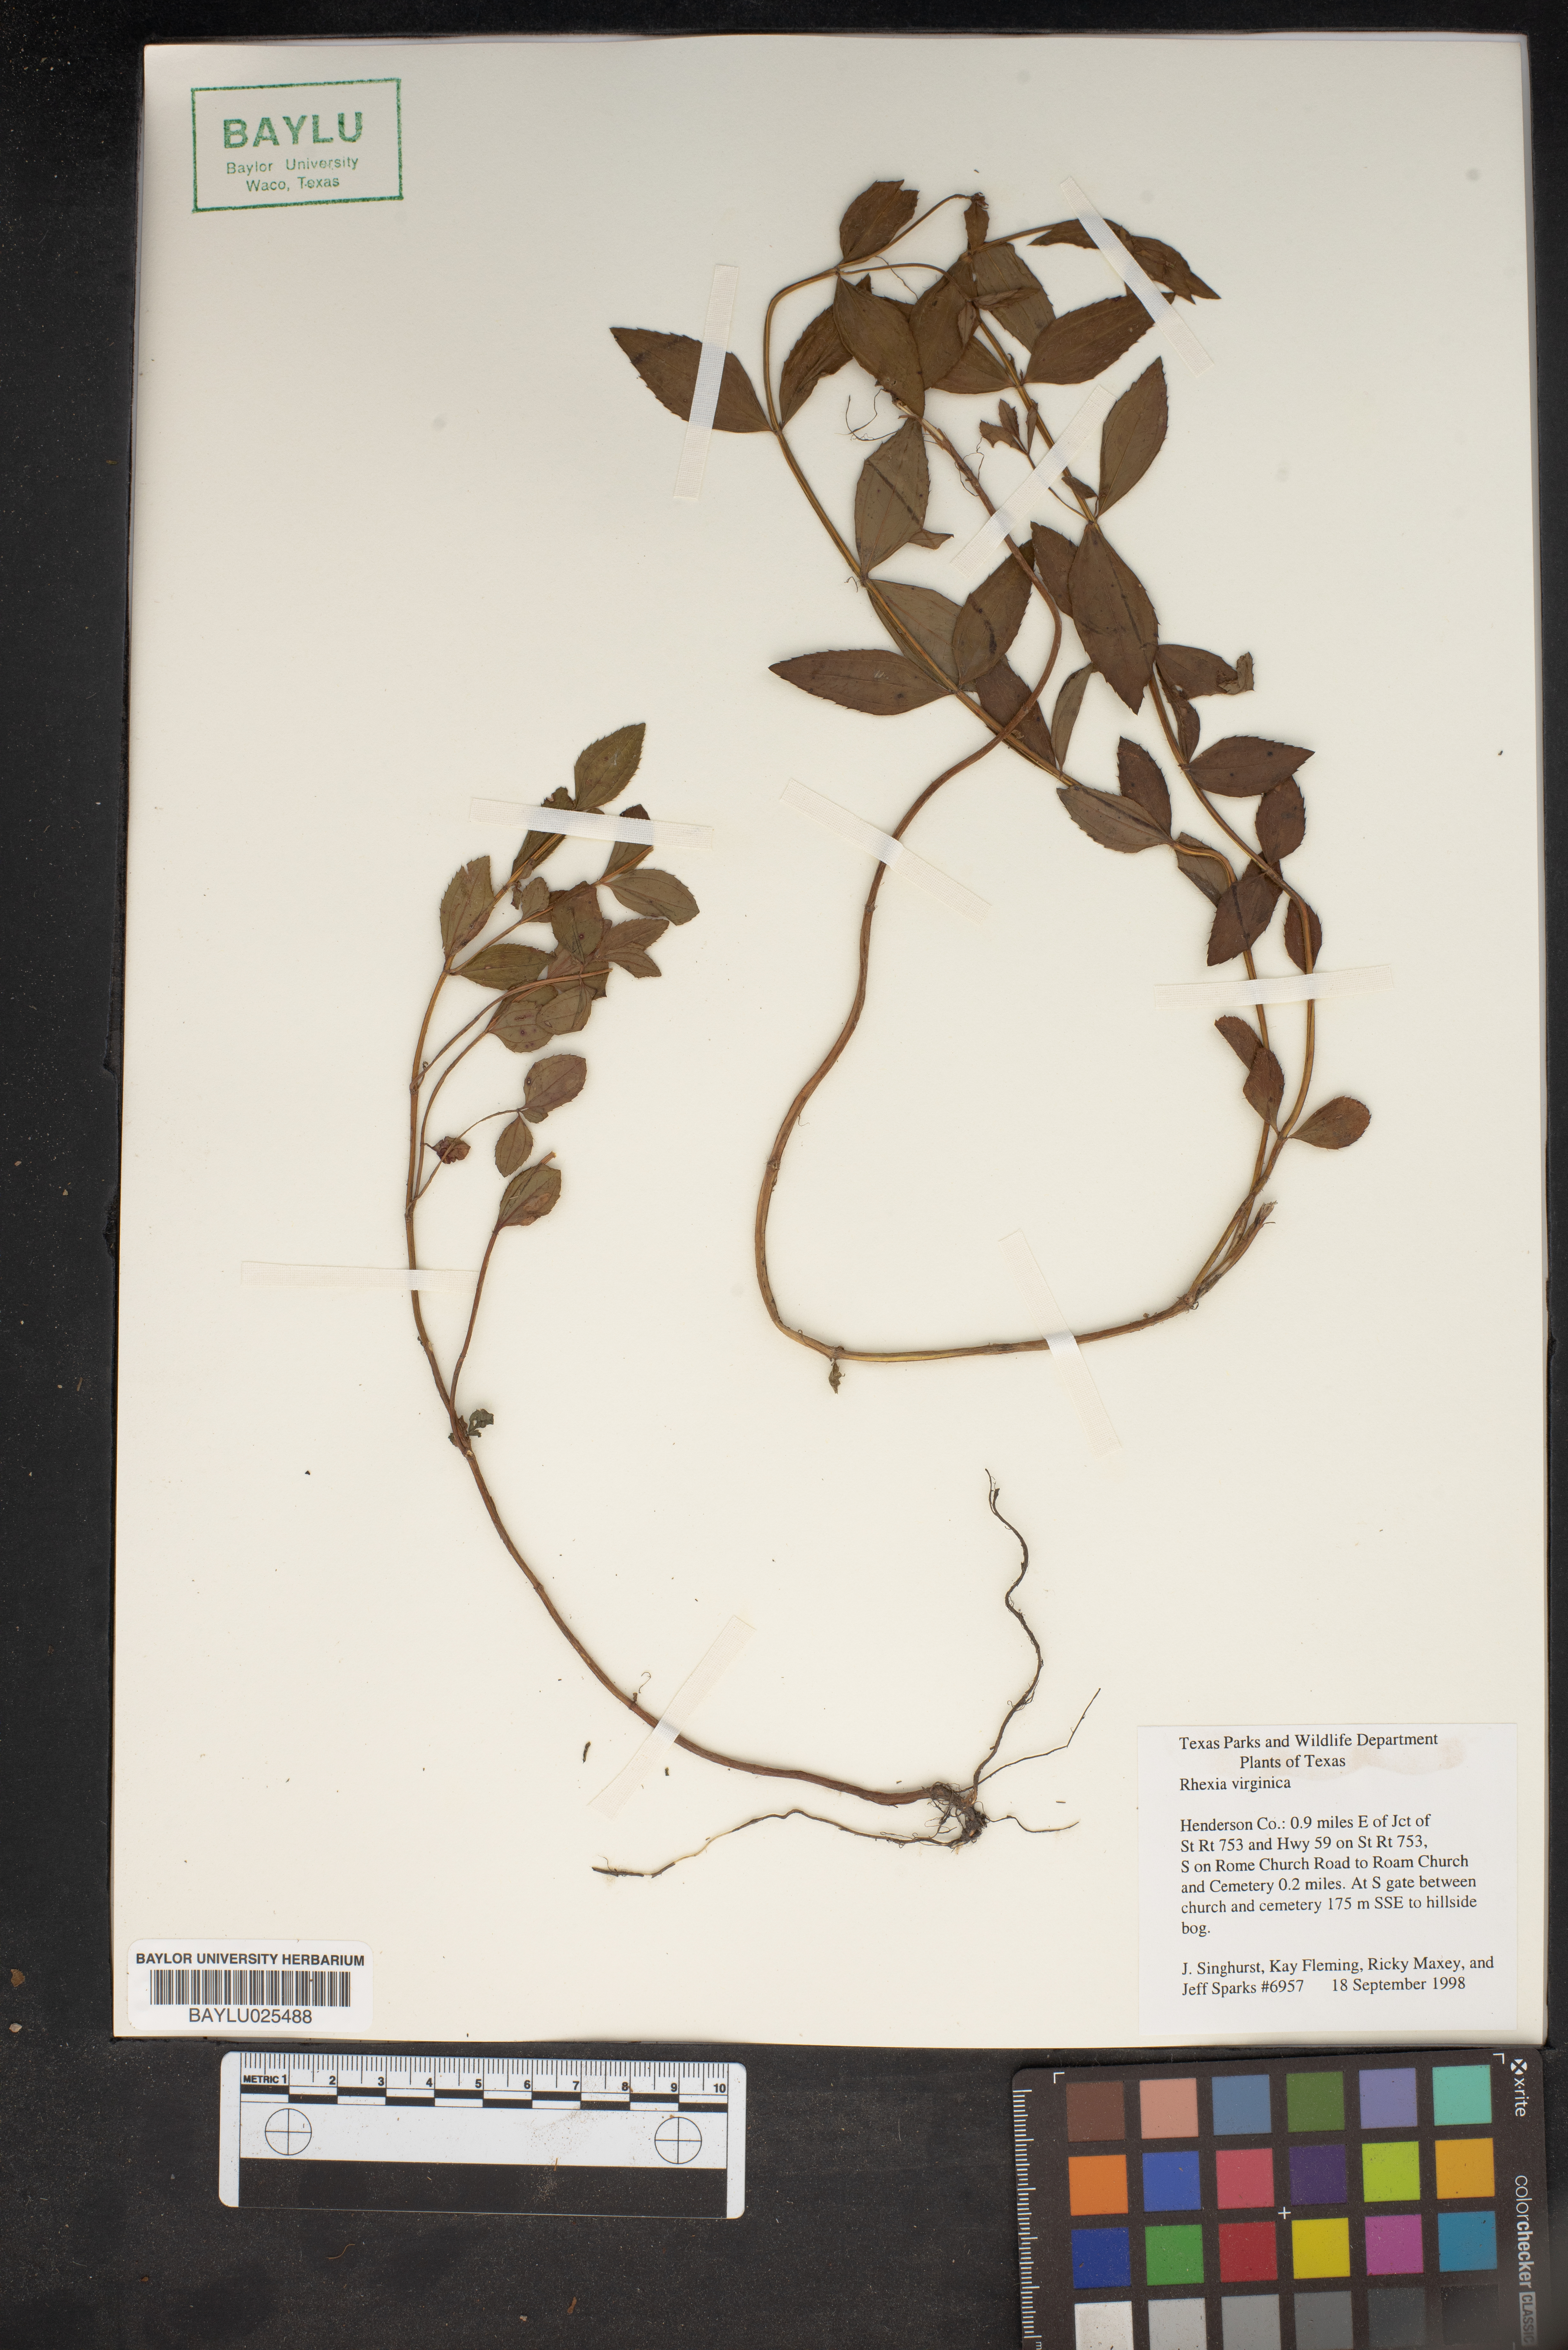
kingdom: Plantae
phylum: Tracheophyta
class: Magnoliopsida
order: Myrtales
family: Melastomataceae
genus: Rhexia
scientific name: Rhexia virginica
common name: Common meadow beauty
